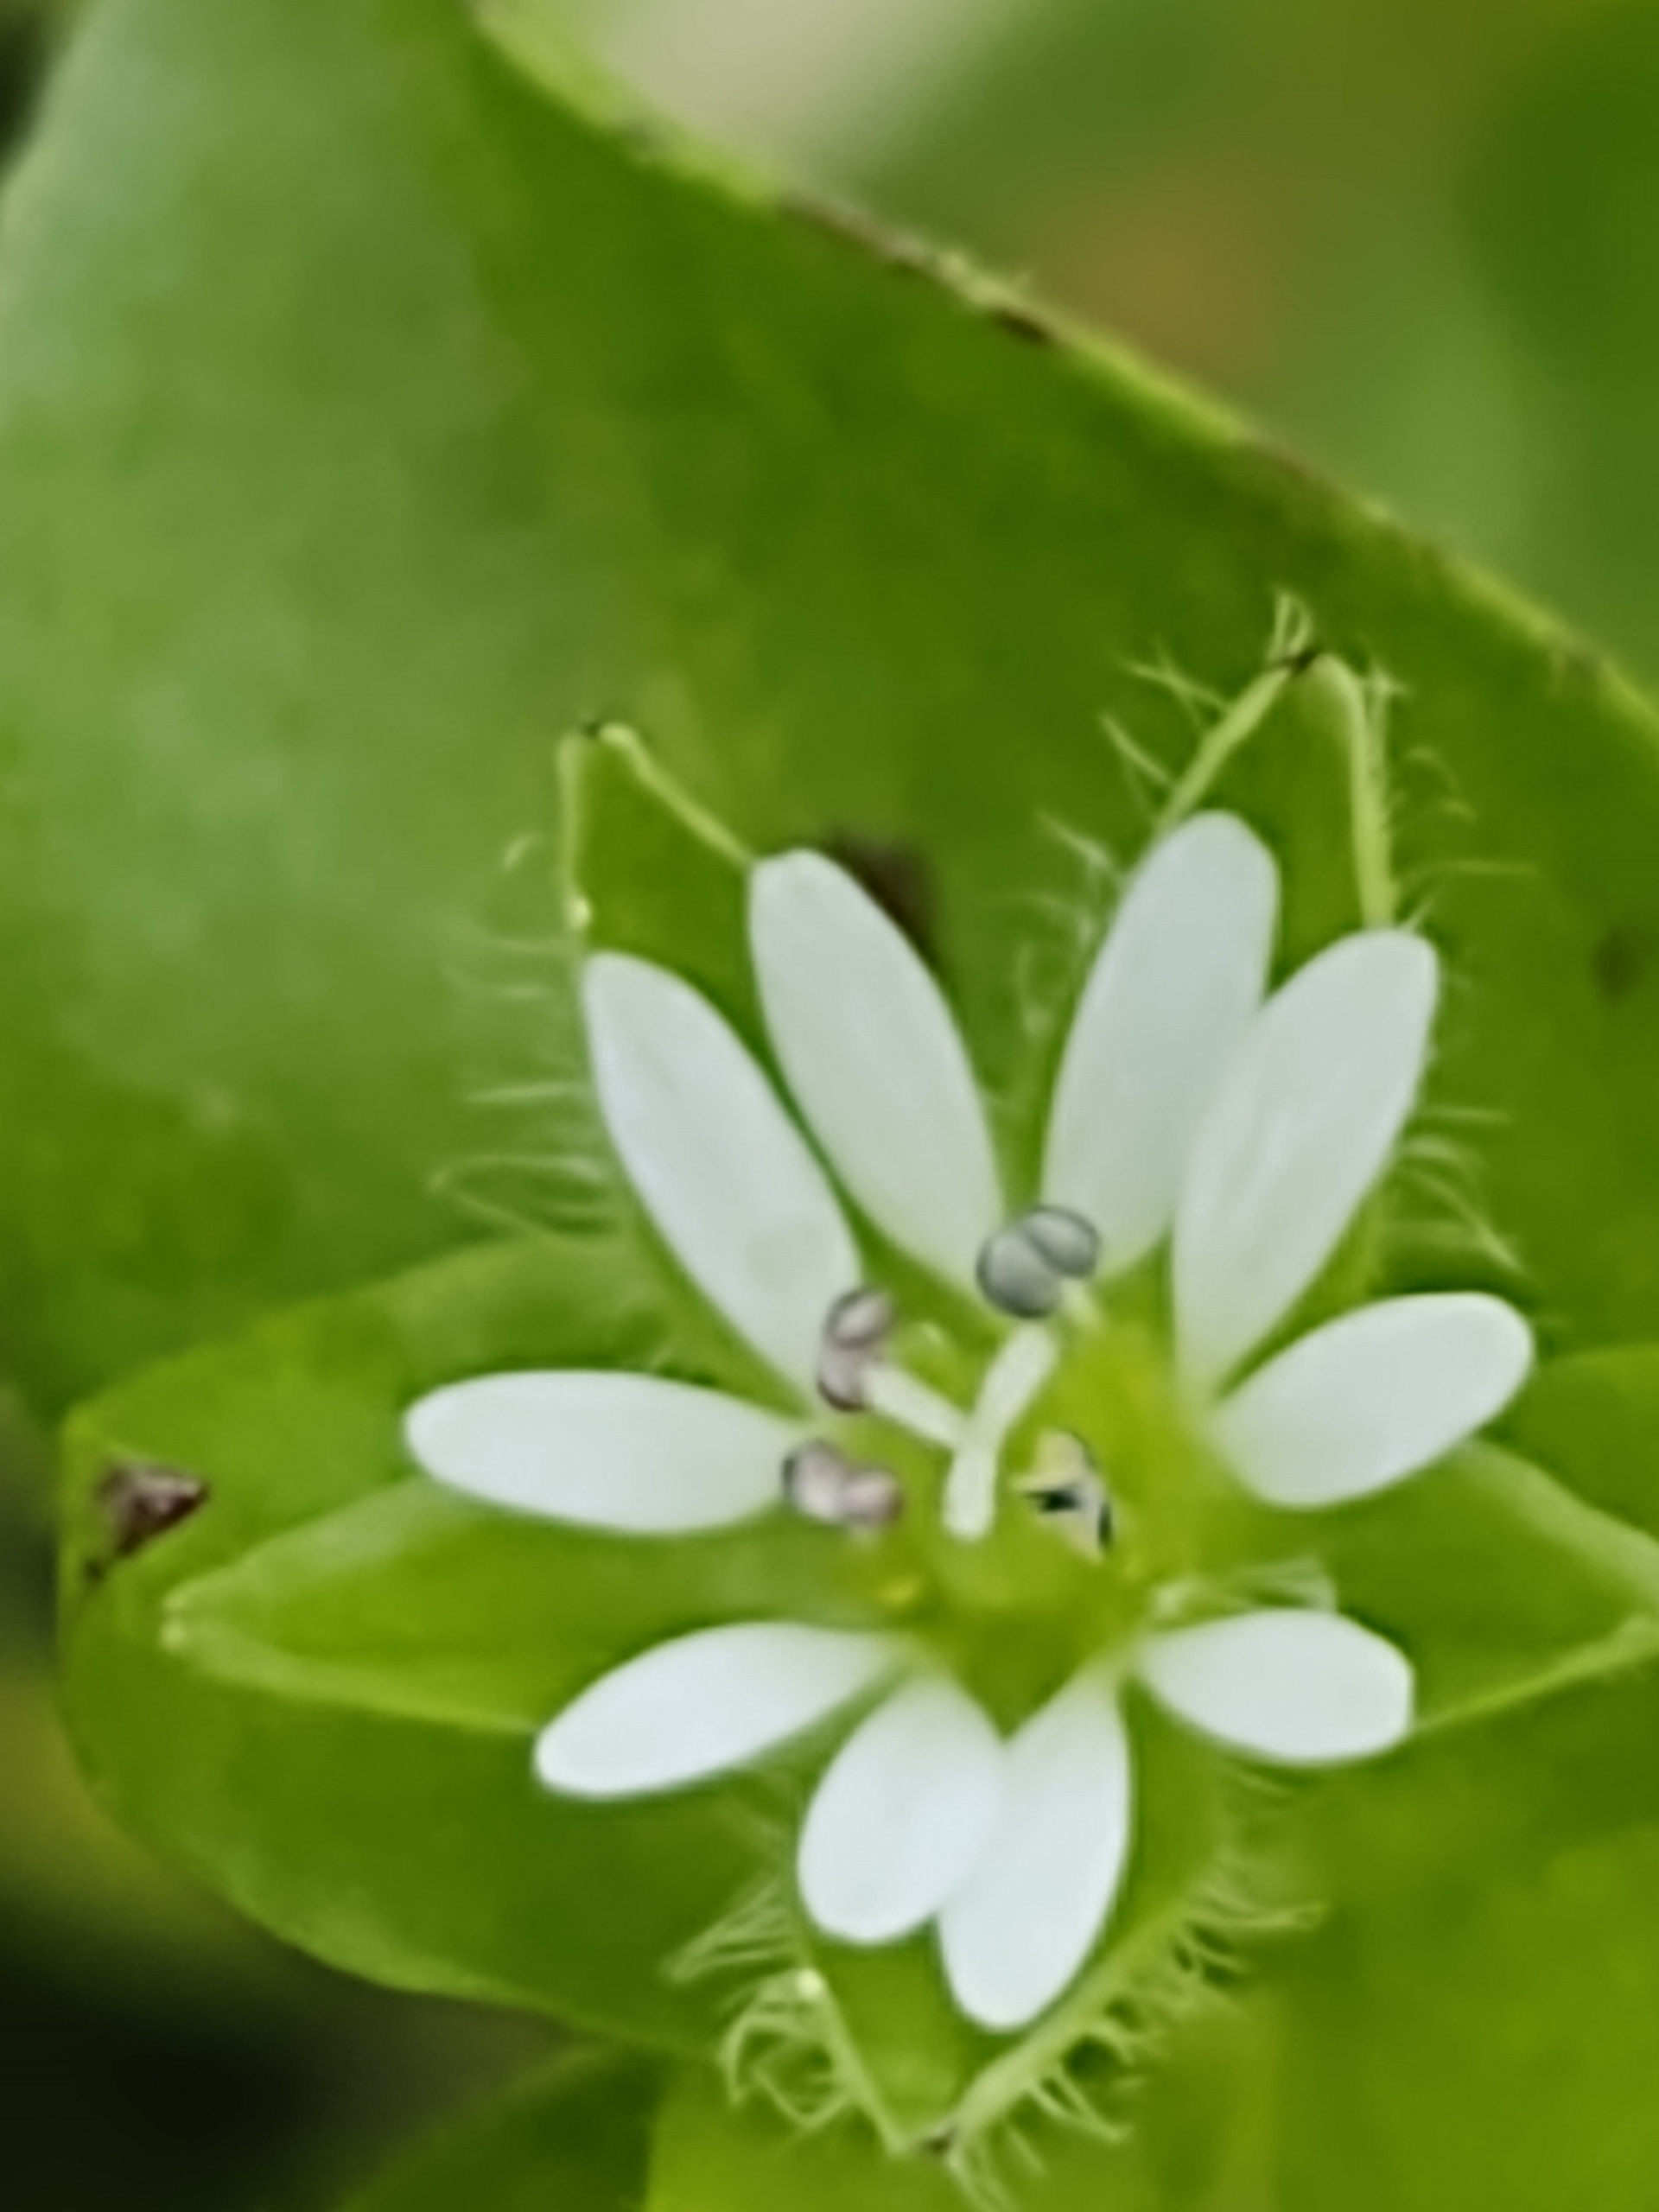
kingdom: Plantae
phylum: Tracheophyta
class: Magnoliopsida
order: Caryophyllales
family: Caryophyllaceae
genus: Stellaria
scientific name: Stellaria media
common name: Almindelig fuglegræs
